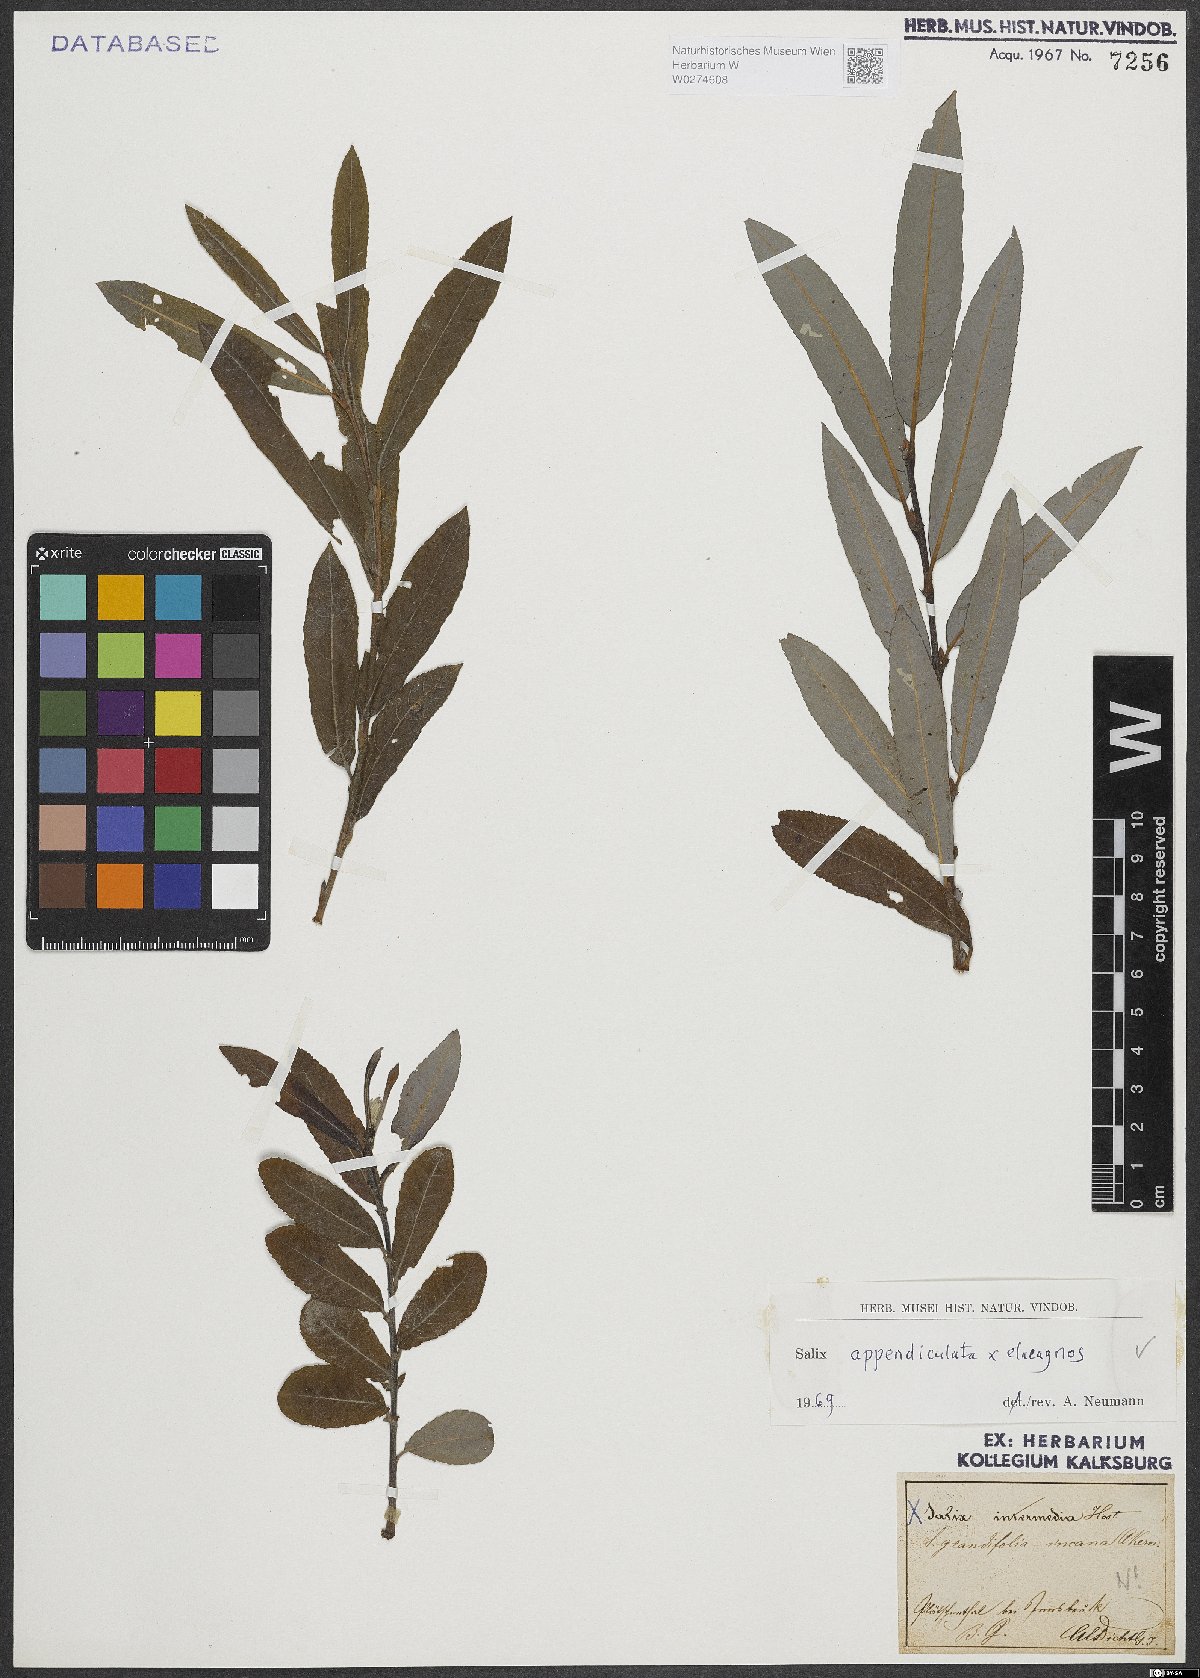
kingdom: Plantae
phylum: Tracheophyta
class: Magnoliopsida
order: Malpighiales
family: Salicaceae
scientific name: Salicaceae
